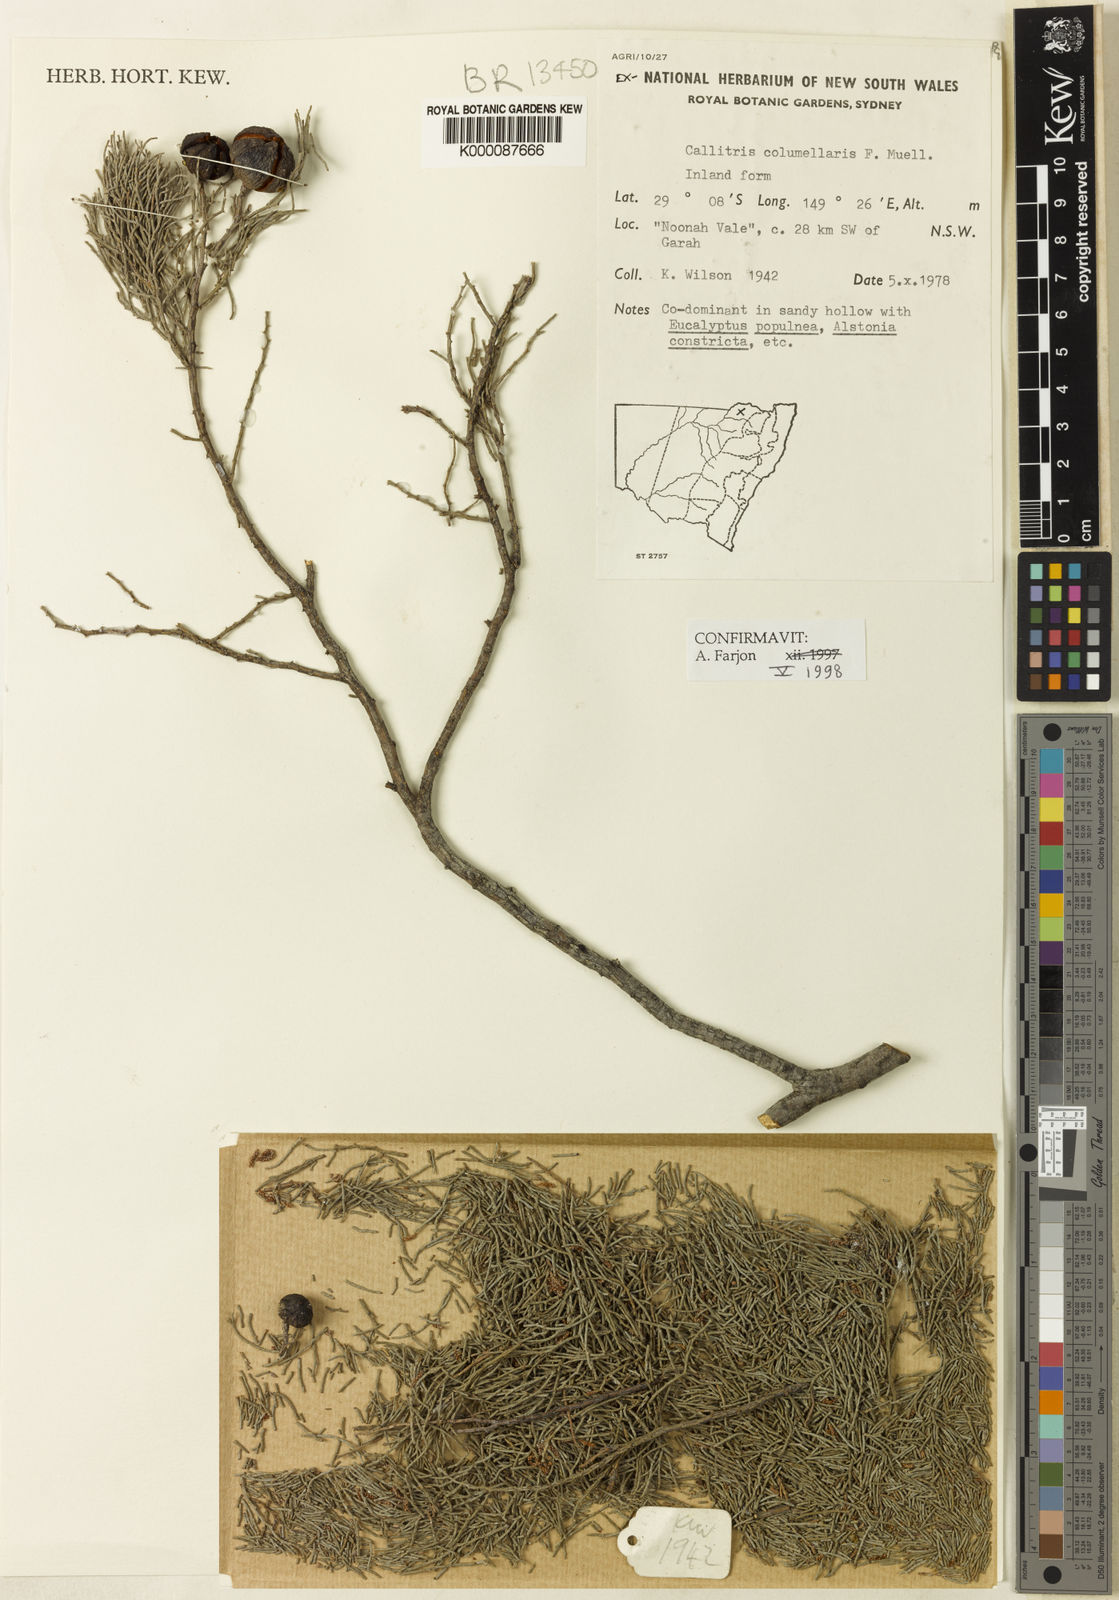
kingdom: Plantae
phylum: Tracheophyta
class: Pinopsida
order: Pinales
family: Cupressaceae
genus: Callitris
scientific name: Callitris columellaris
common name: White cypress-pine
